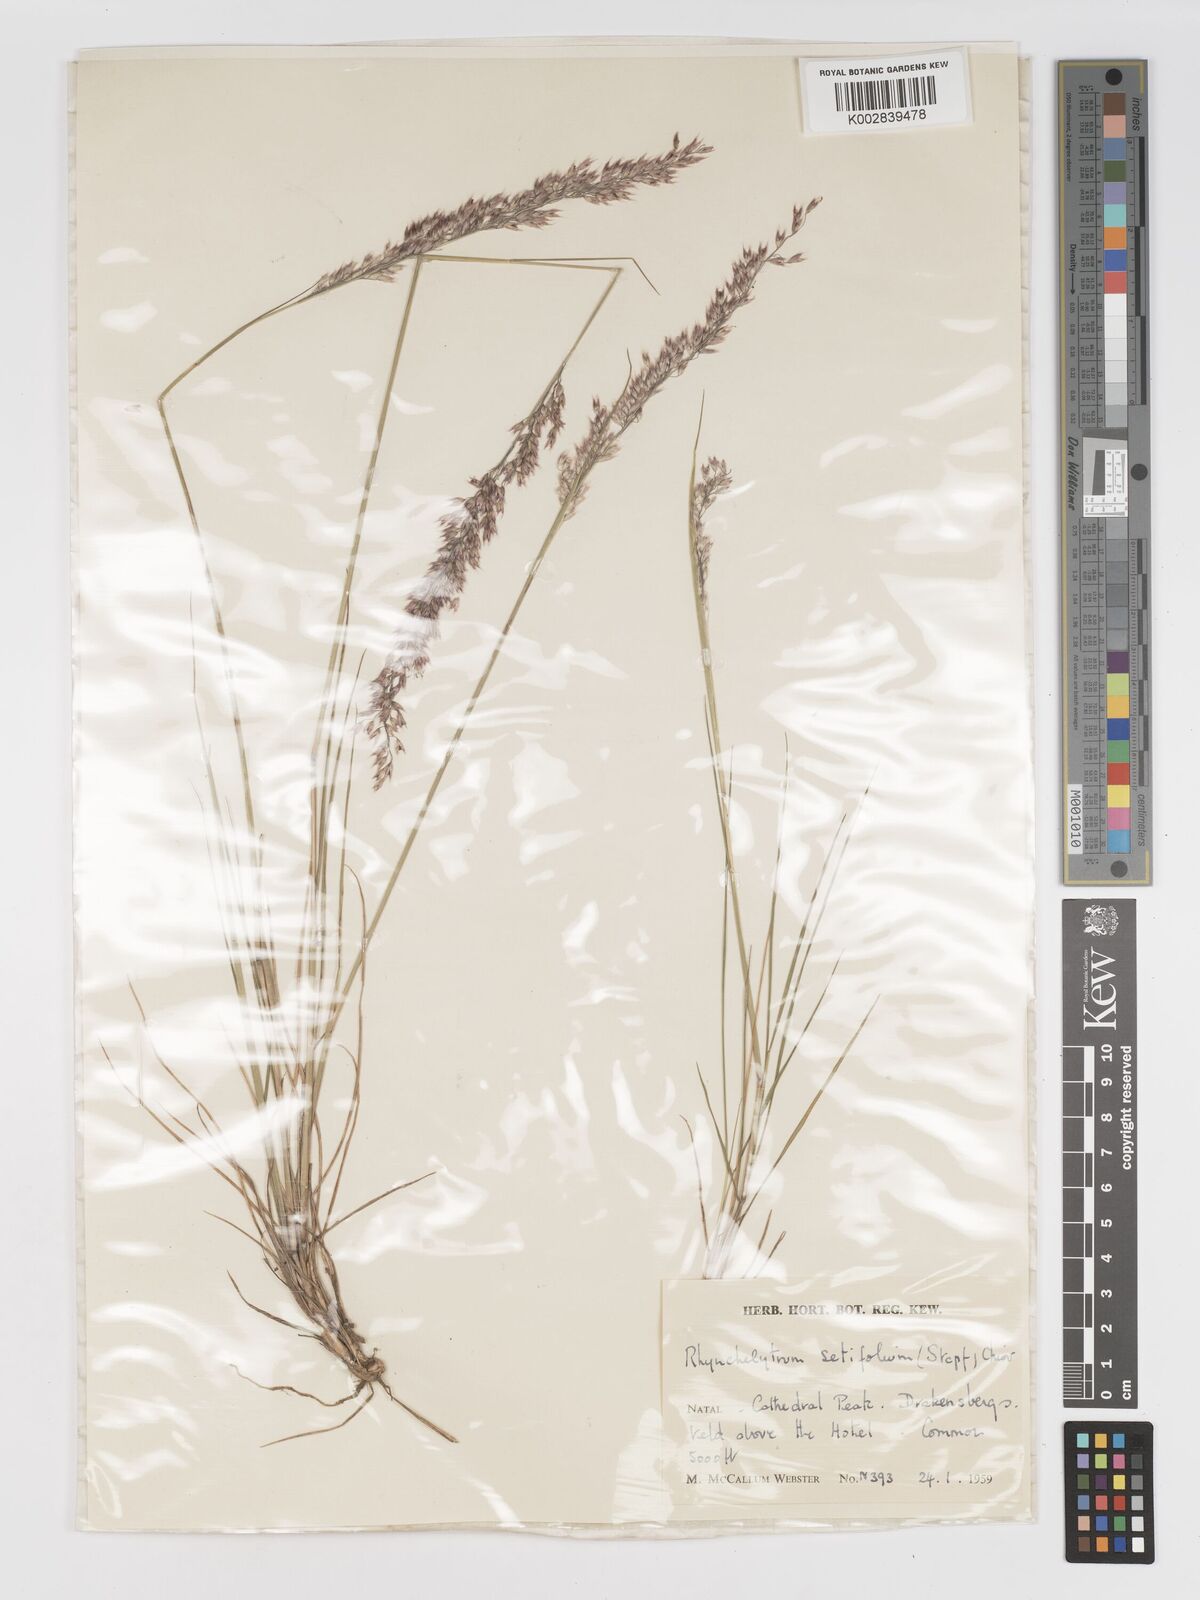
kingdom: Plantae
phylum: Tracheophyta
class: Liliopsida
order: Poales
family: Poaceae
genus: Melinis
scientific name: Melinis nerviglumis
